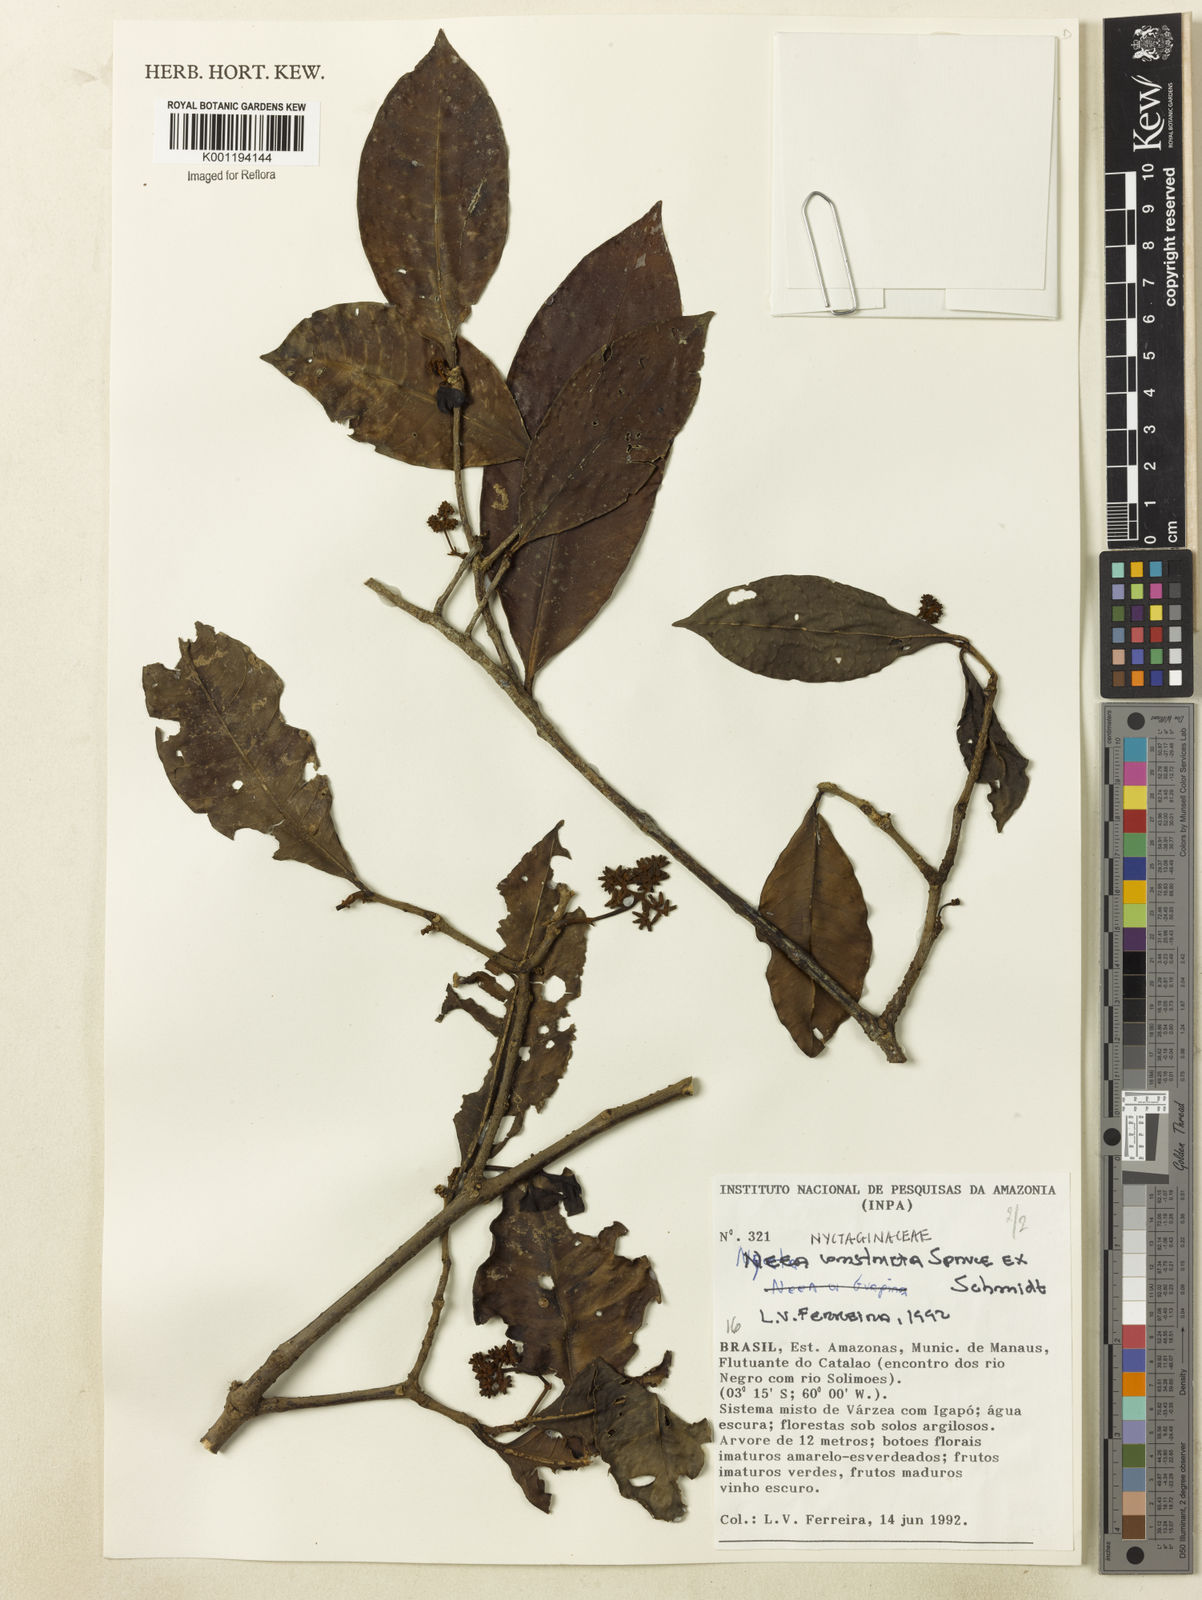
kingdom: Plantae
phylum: Tracheophyta
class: Magnoliopsida
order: Caryophyllales
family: Nyctaginaceae
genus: Neea
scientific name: Neea constricta
